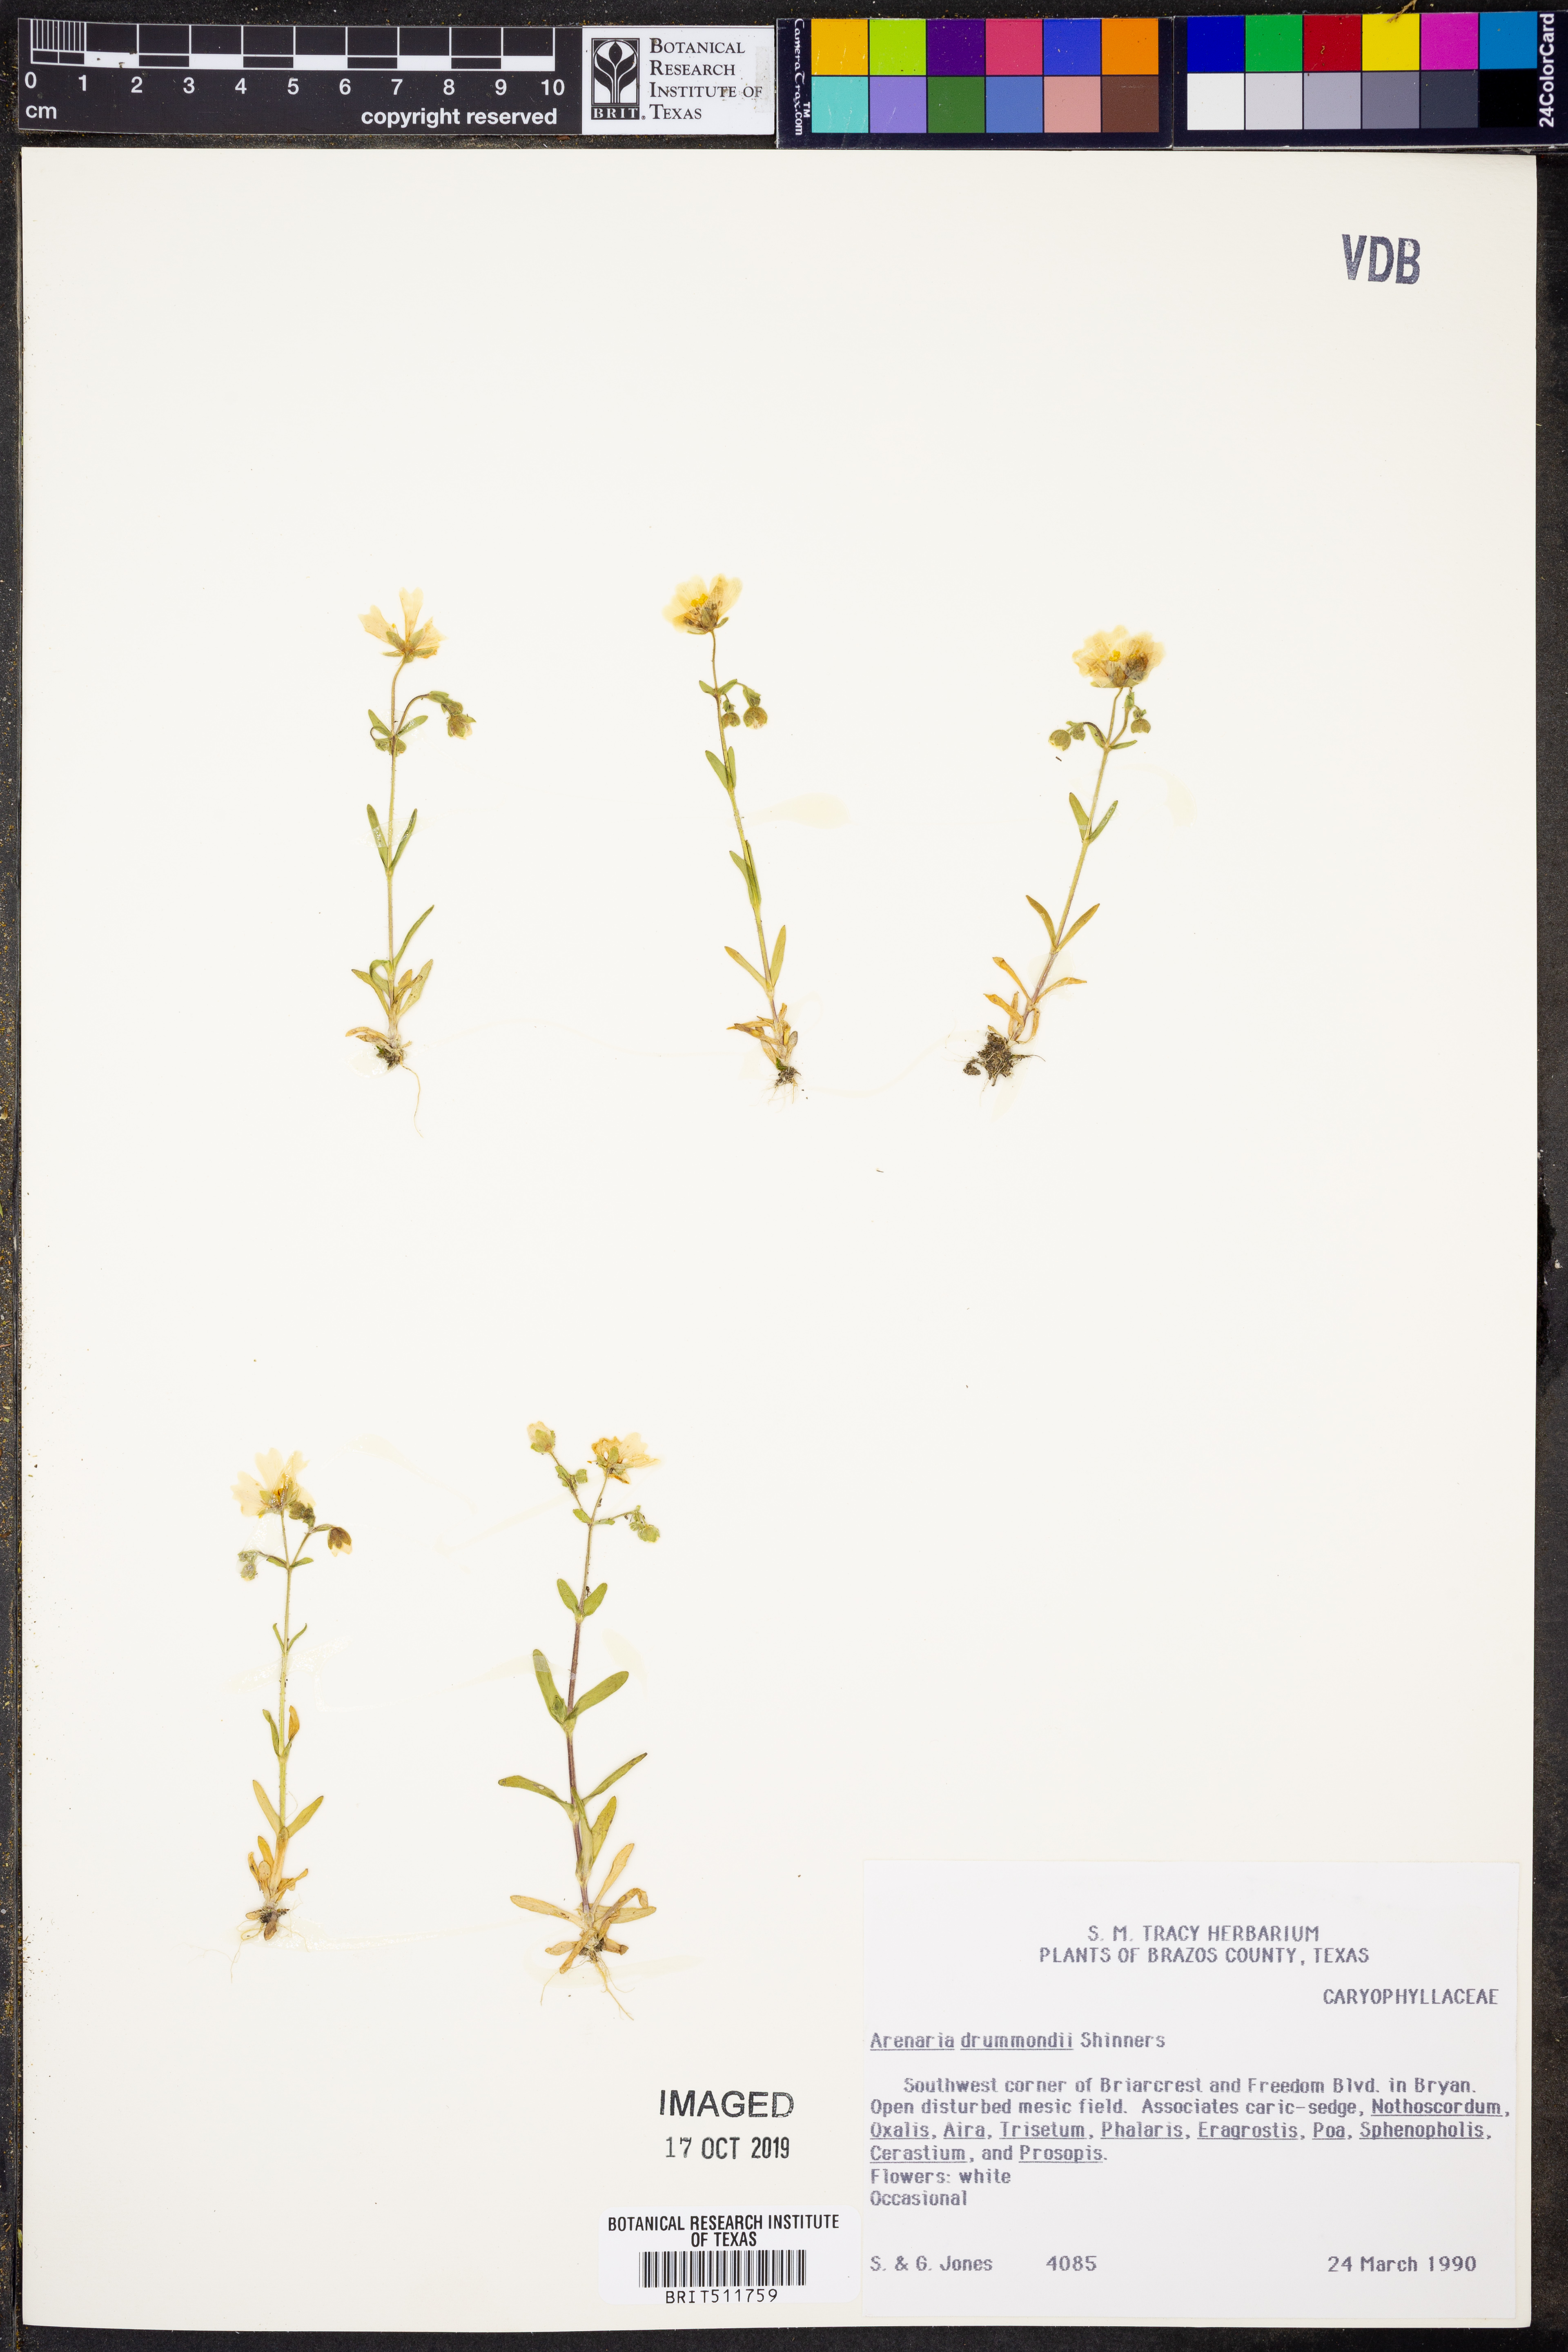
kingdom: Plantae
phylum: Tracheophyta
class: Magnoliopsida
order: Caryophyllales
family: Caryophyllaceae
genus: Geocarpon
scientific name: Geocarpon nuttallii
